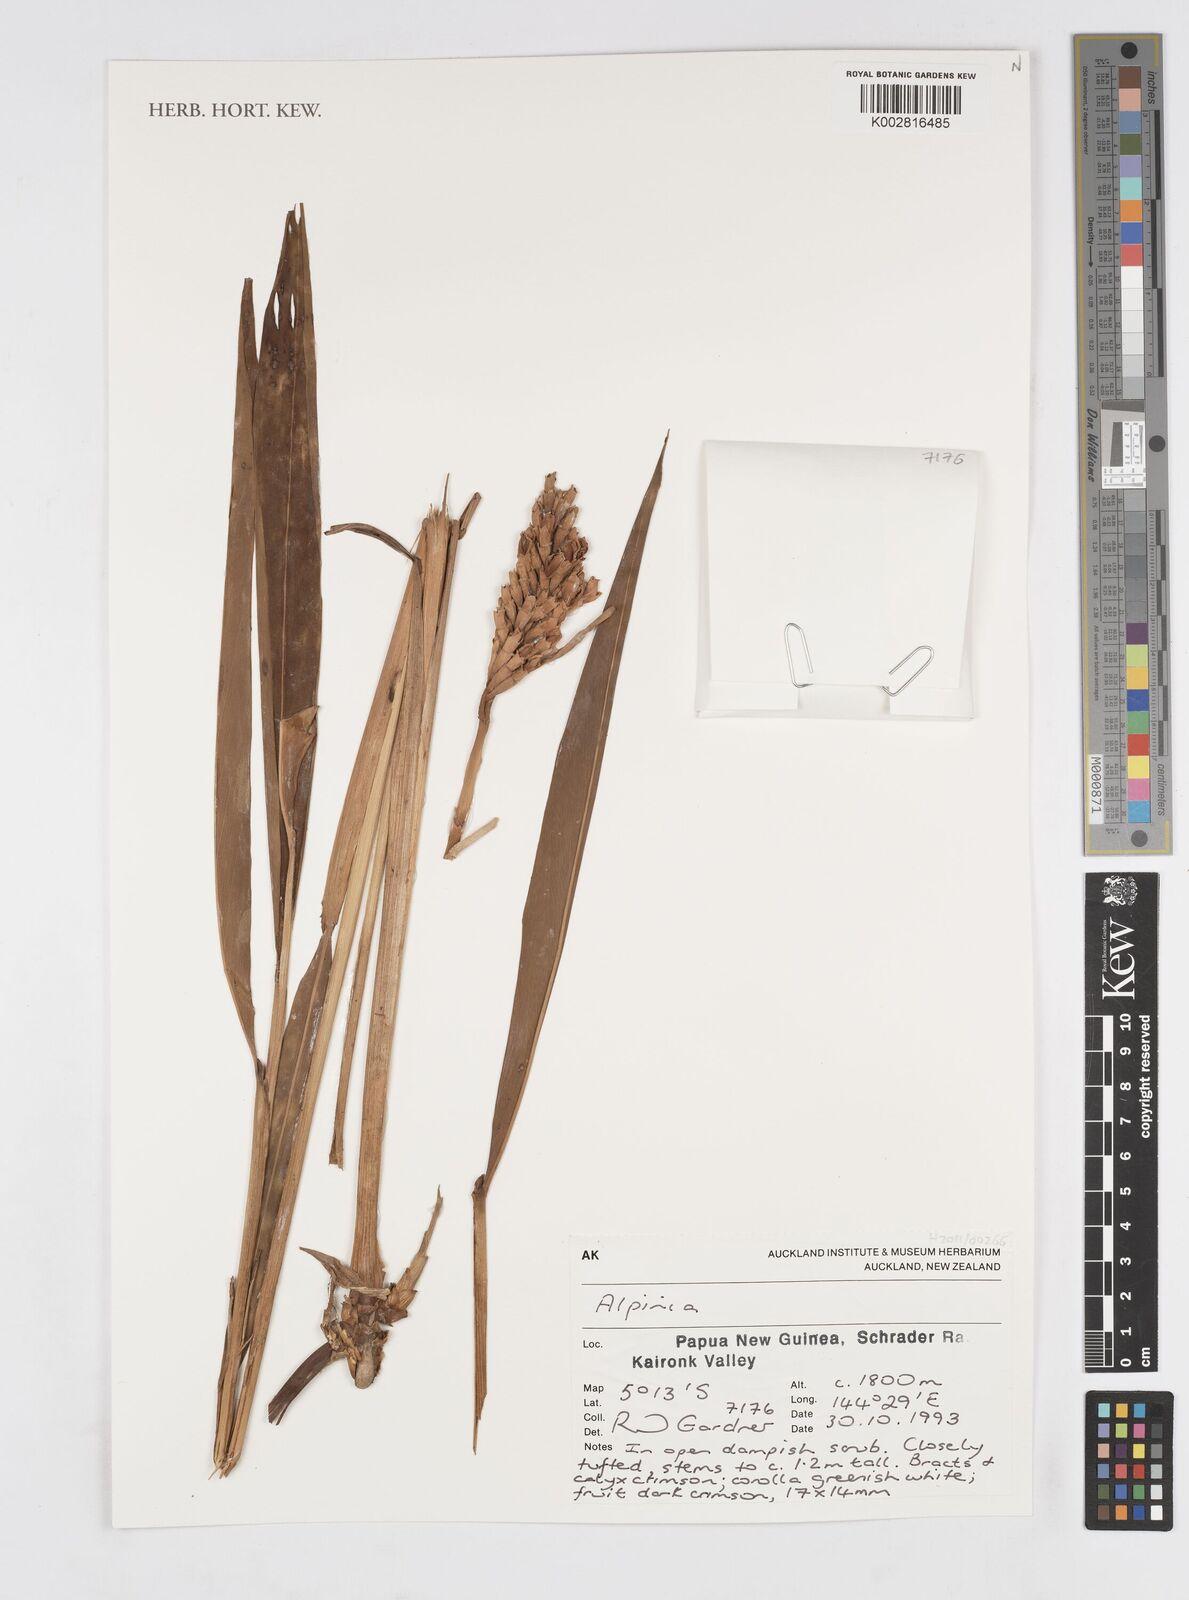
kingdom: Plantae
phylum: Tracheophyta
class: Liliopsida
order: Zingiberales
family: Zingiberaceae
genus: Alpinia
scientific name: Alpinia
